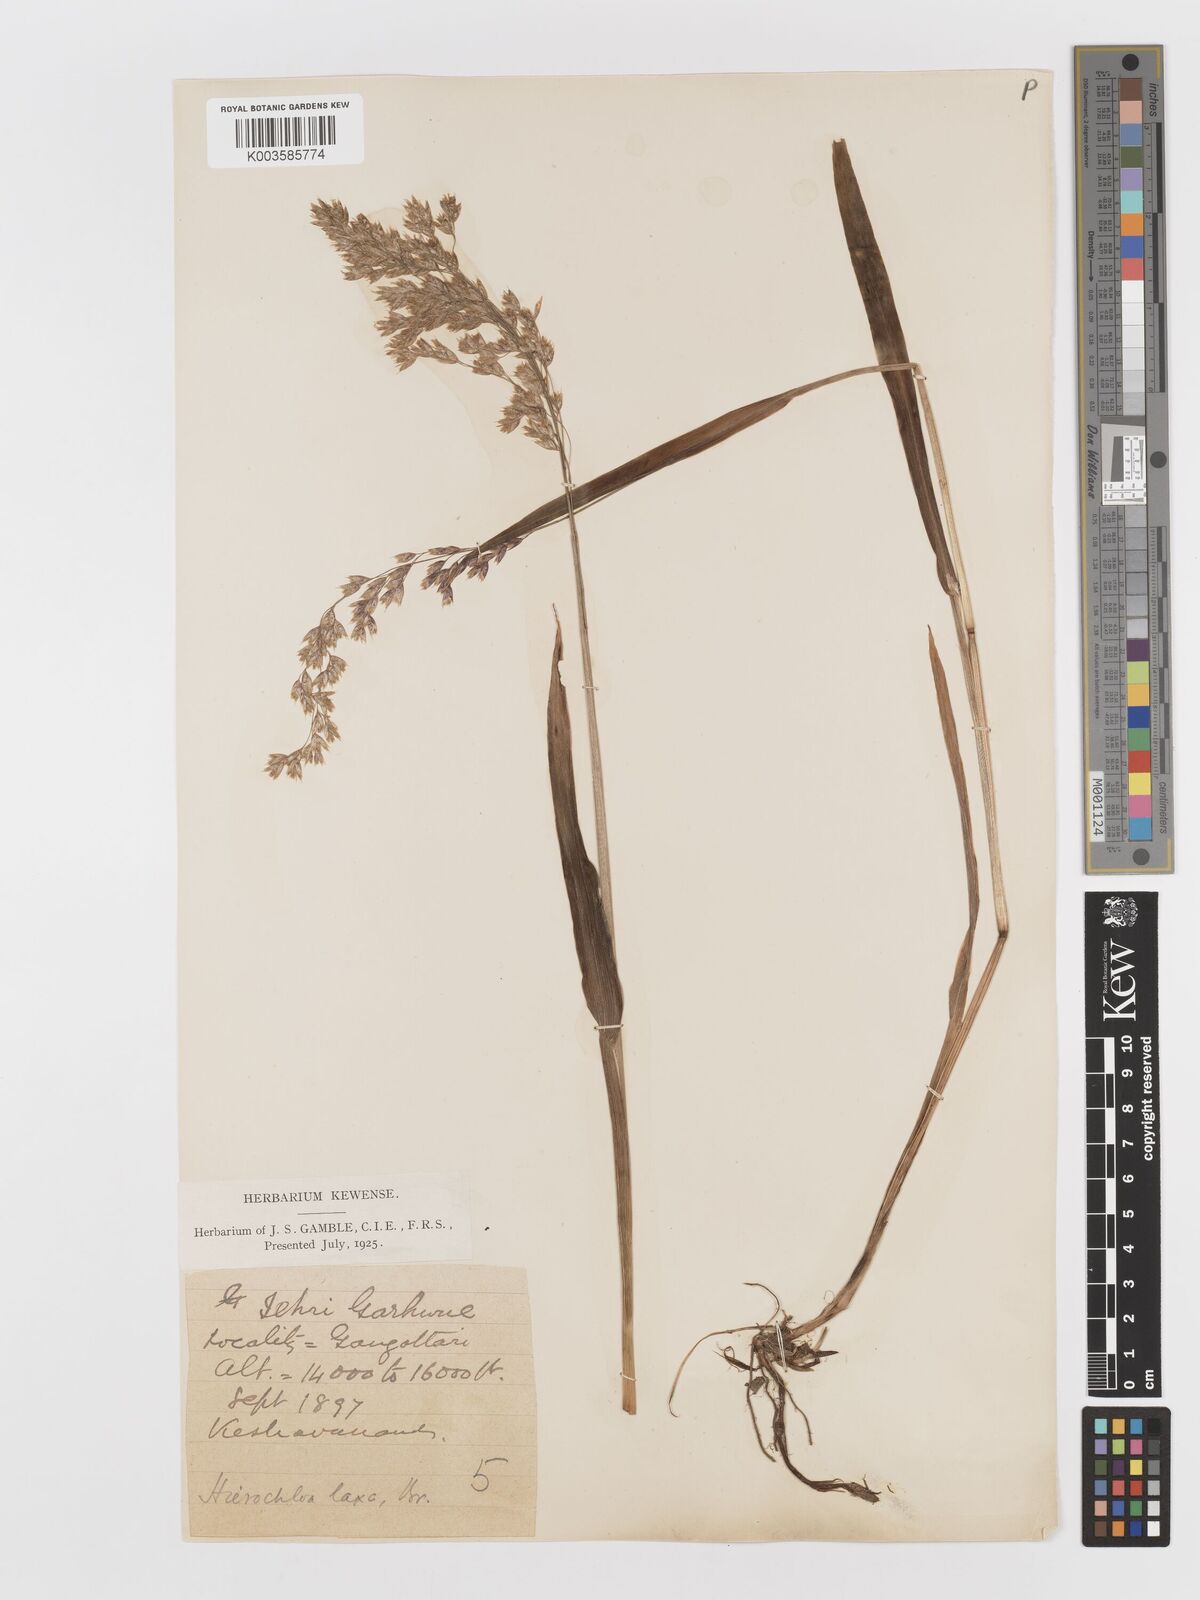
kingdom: Plantae
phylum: Tracheophyta
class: Liliopsida
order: Poales
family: Poaceae
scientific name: Poaceae
